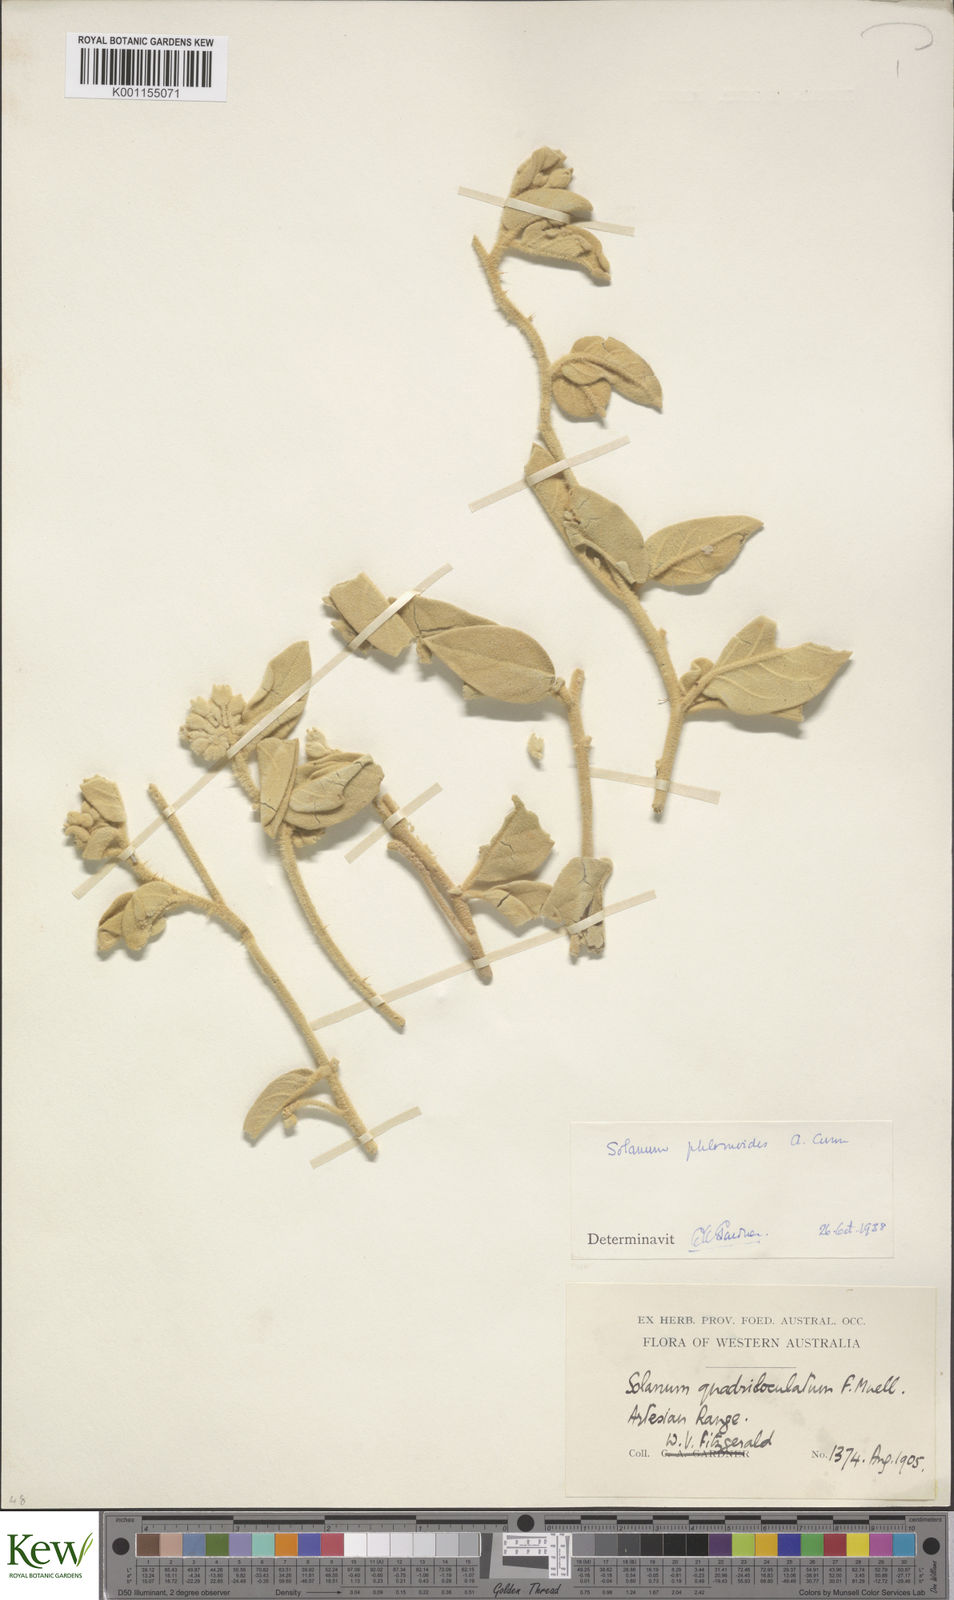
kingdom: Plantae
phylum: Tracheophyta
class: Magnoliopsida
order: Solanales
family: Solanaceae
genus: Solanum
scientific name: Solanum phlomoides
